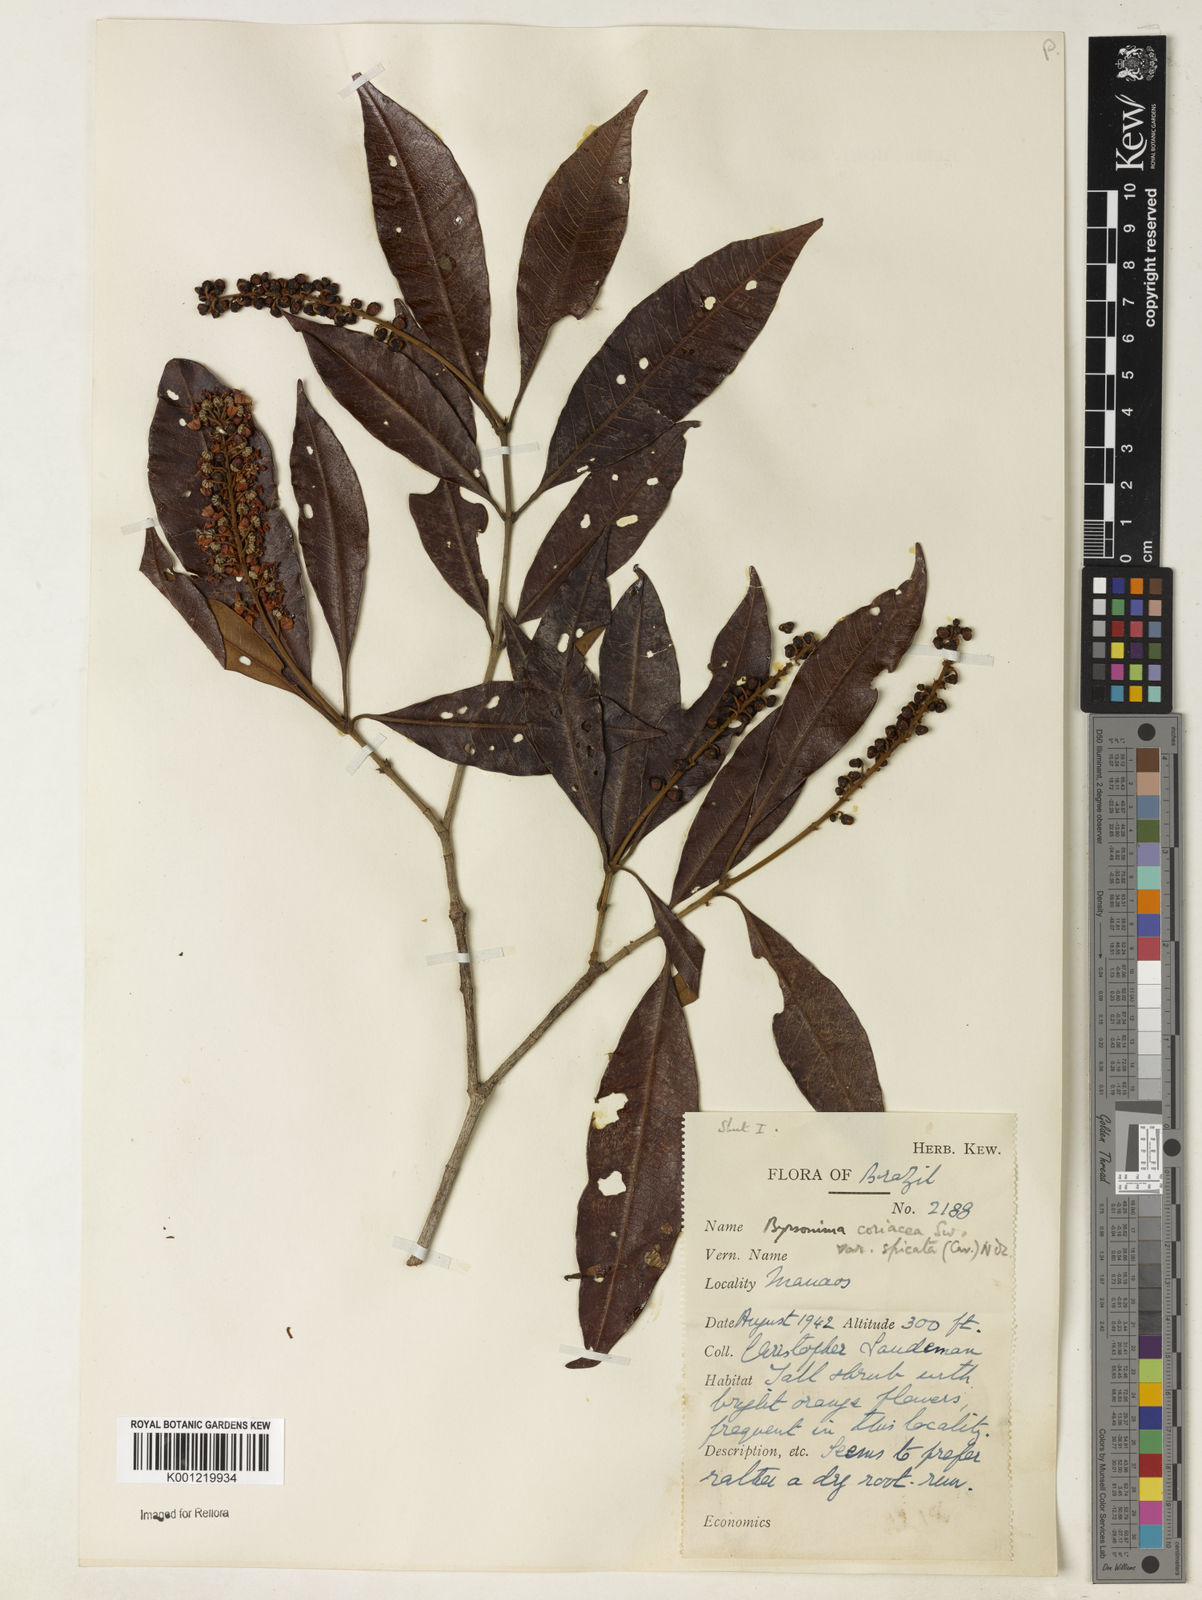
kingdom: Plantae
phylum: Tracheophyta
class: Magnoliopsida
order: Malpighiales
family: Malpighiaceae
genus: Byrsonima
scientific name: Byrsonima
